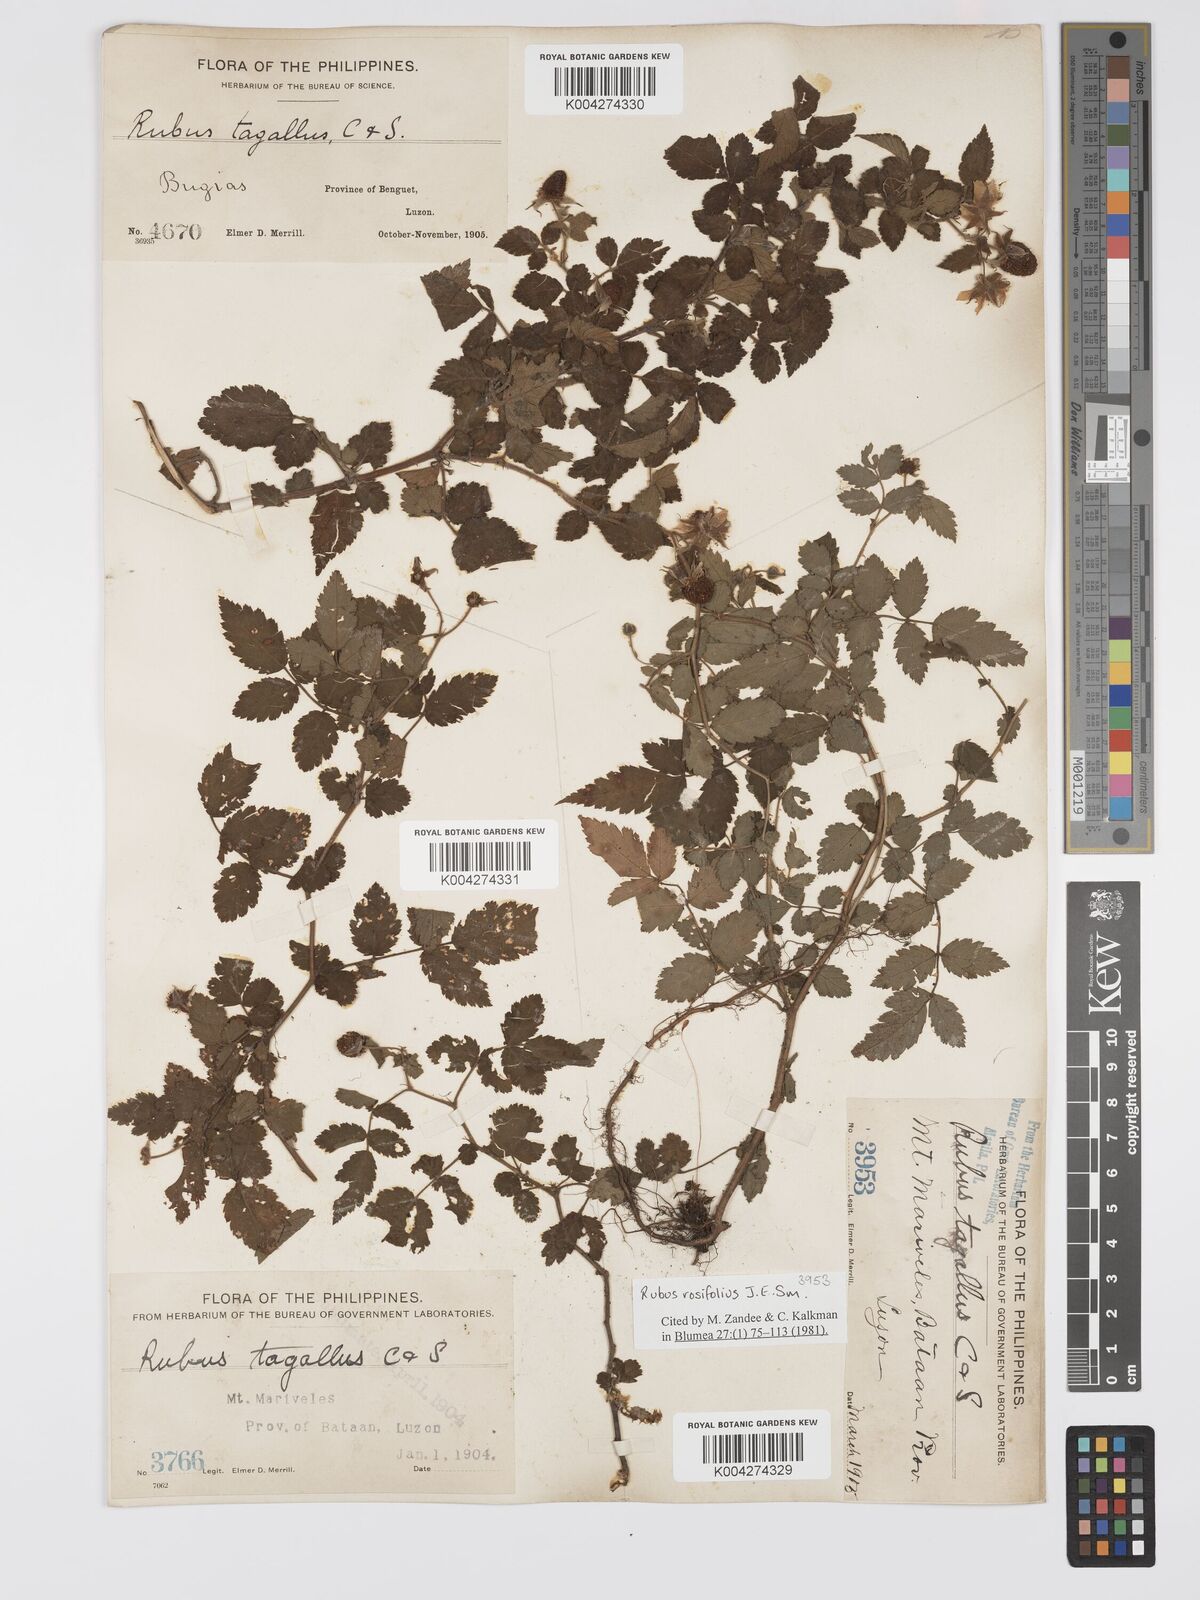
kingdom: Plantae
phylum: Tracheophyta
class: Magnoliopsida
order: Rosales
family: Rosaceae
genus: Rubus
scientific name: Rubus
